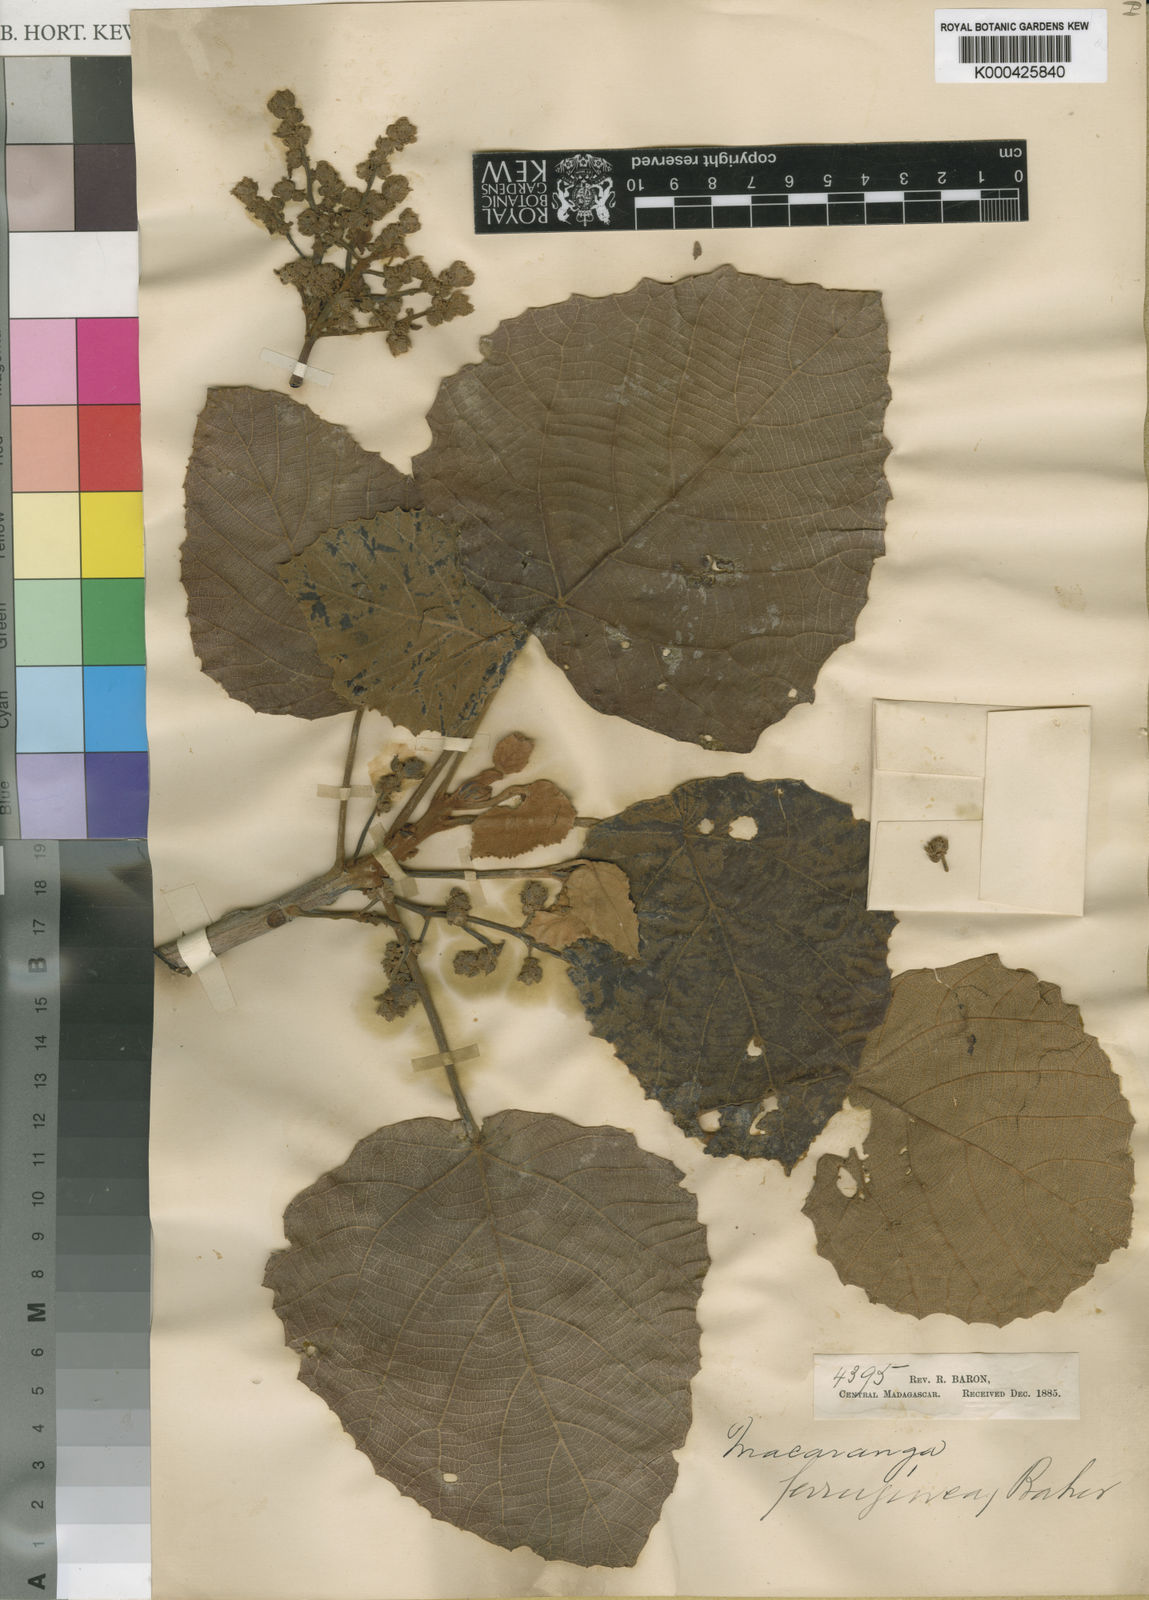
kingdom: Plantae
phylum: Tracheophyta
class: Magnoliopsida
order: Malpighiales
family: Euphorbiaceae
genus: Macaranga
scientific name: Macaranga ferruginea
